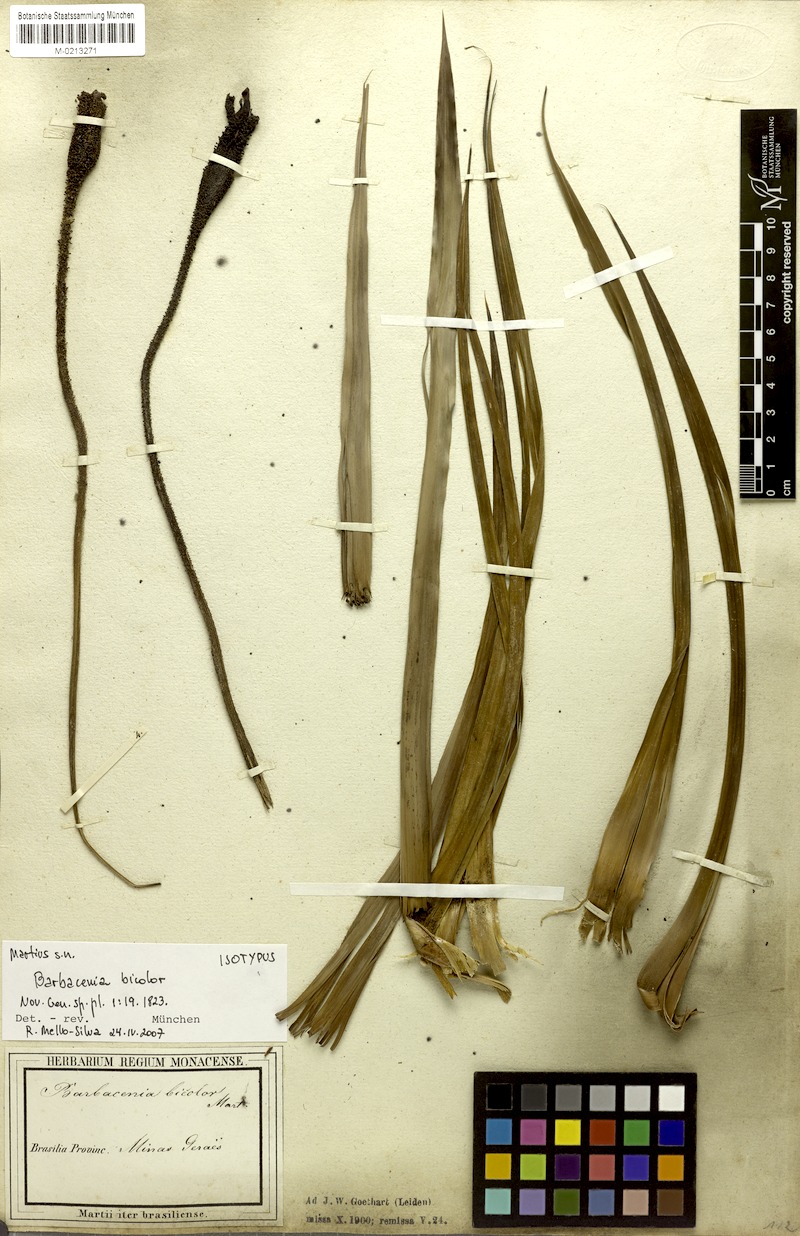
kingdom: Plantae
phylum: Tracheophyta
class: Liliopsida
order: Pandanales
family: Velloziaceae
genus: Barbacenia
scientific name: Barbacenia brasiliensis
